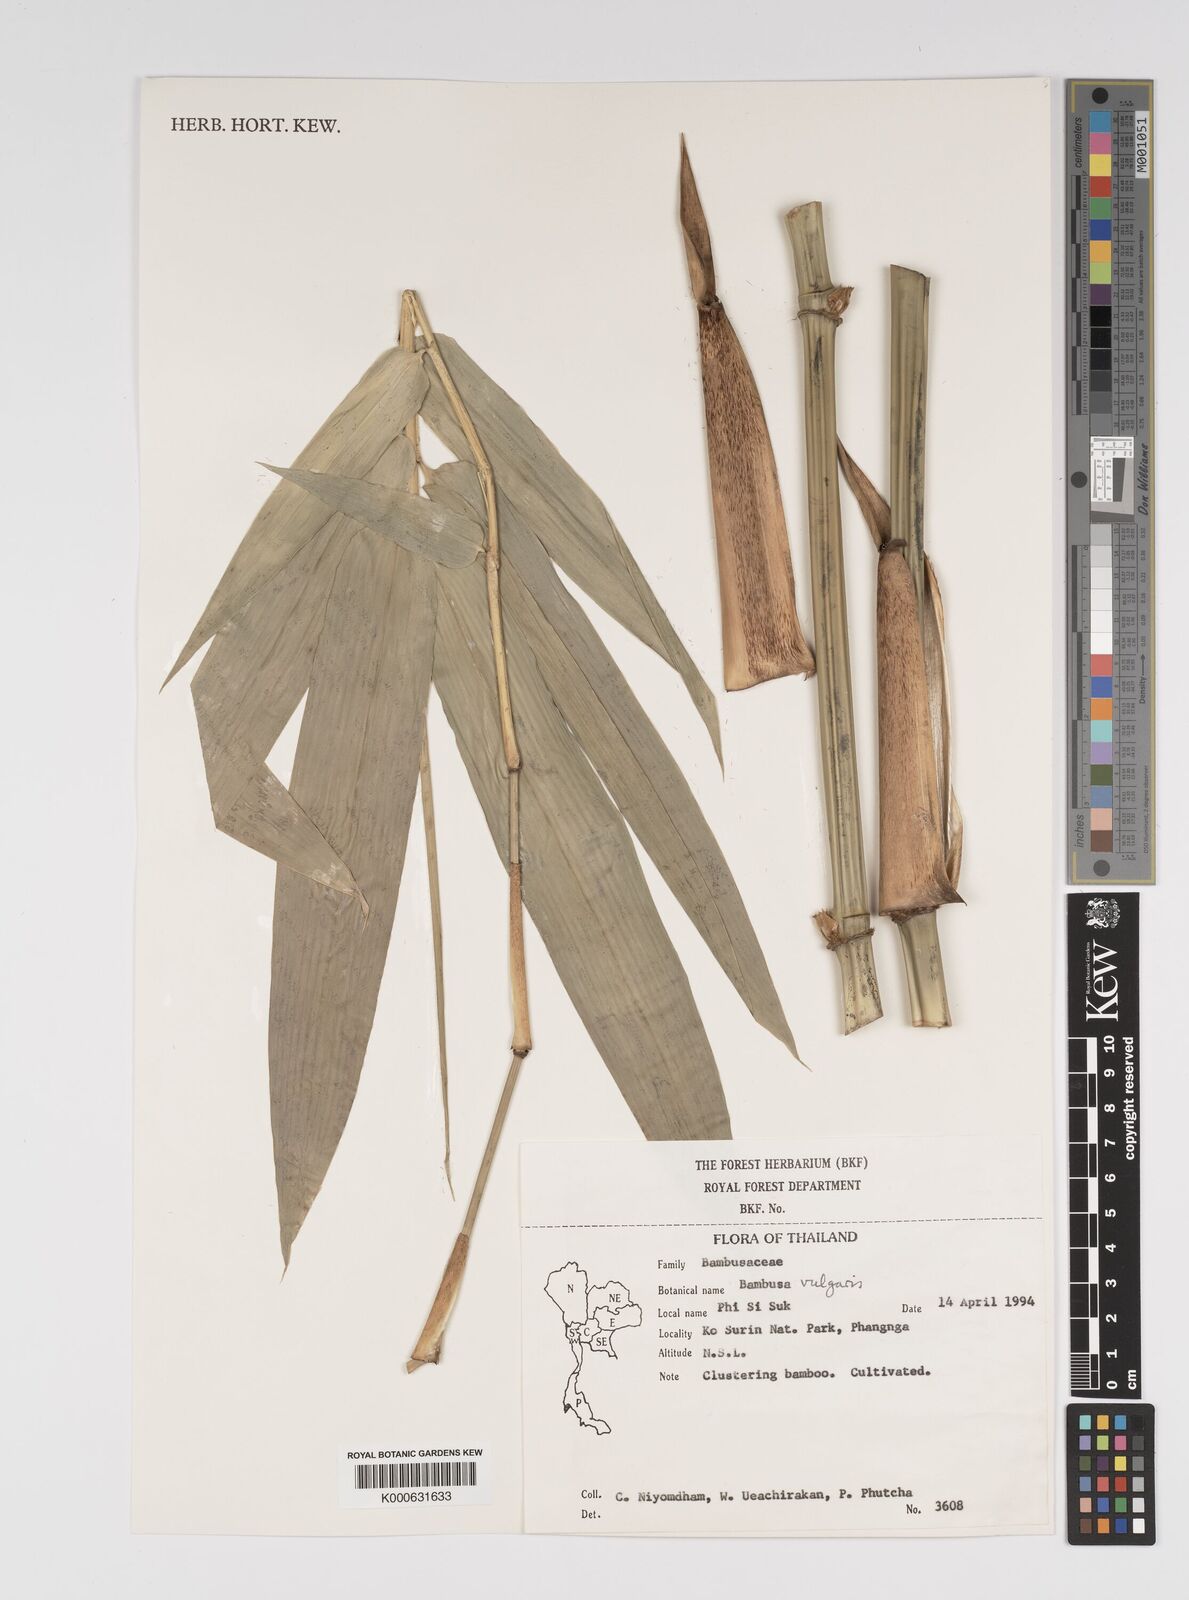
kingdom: Plantae
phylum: Tracheophyta
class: Liliopsida
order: Poales
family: Poaceae
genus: Bambusa
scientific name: Bambusa balcooa
